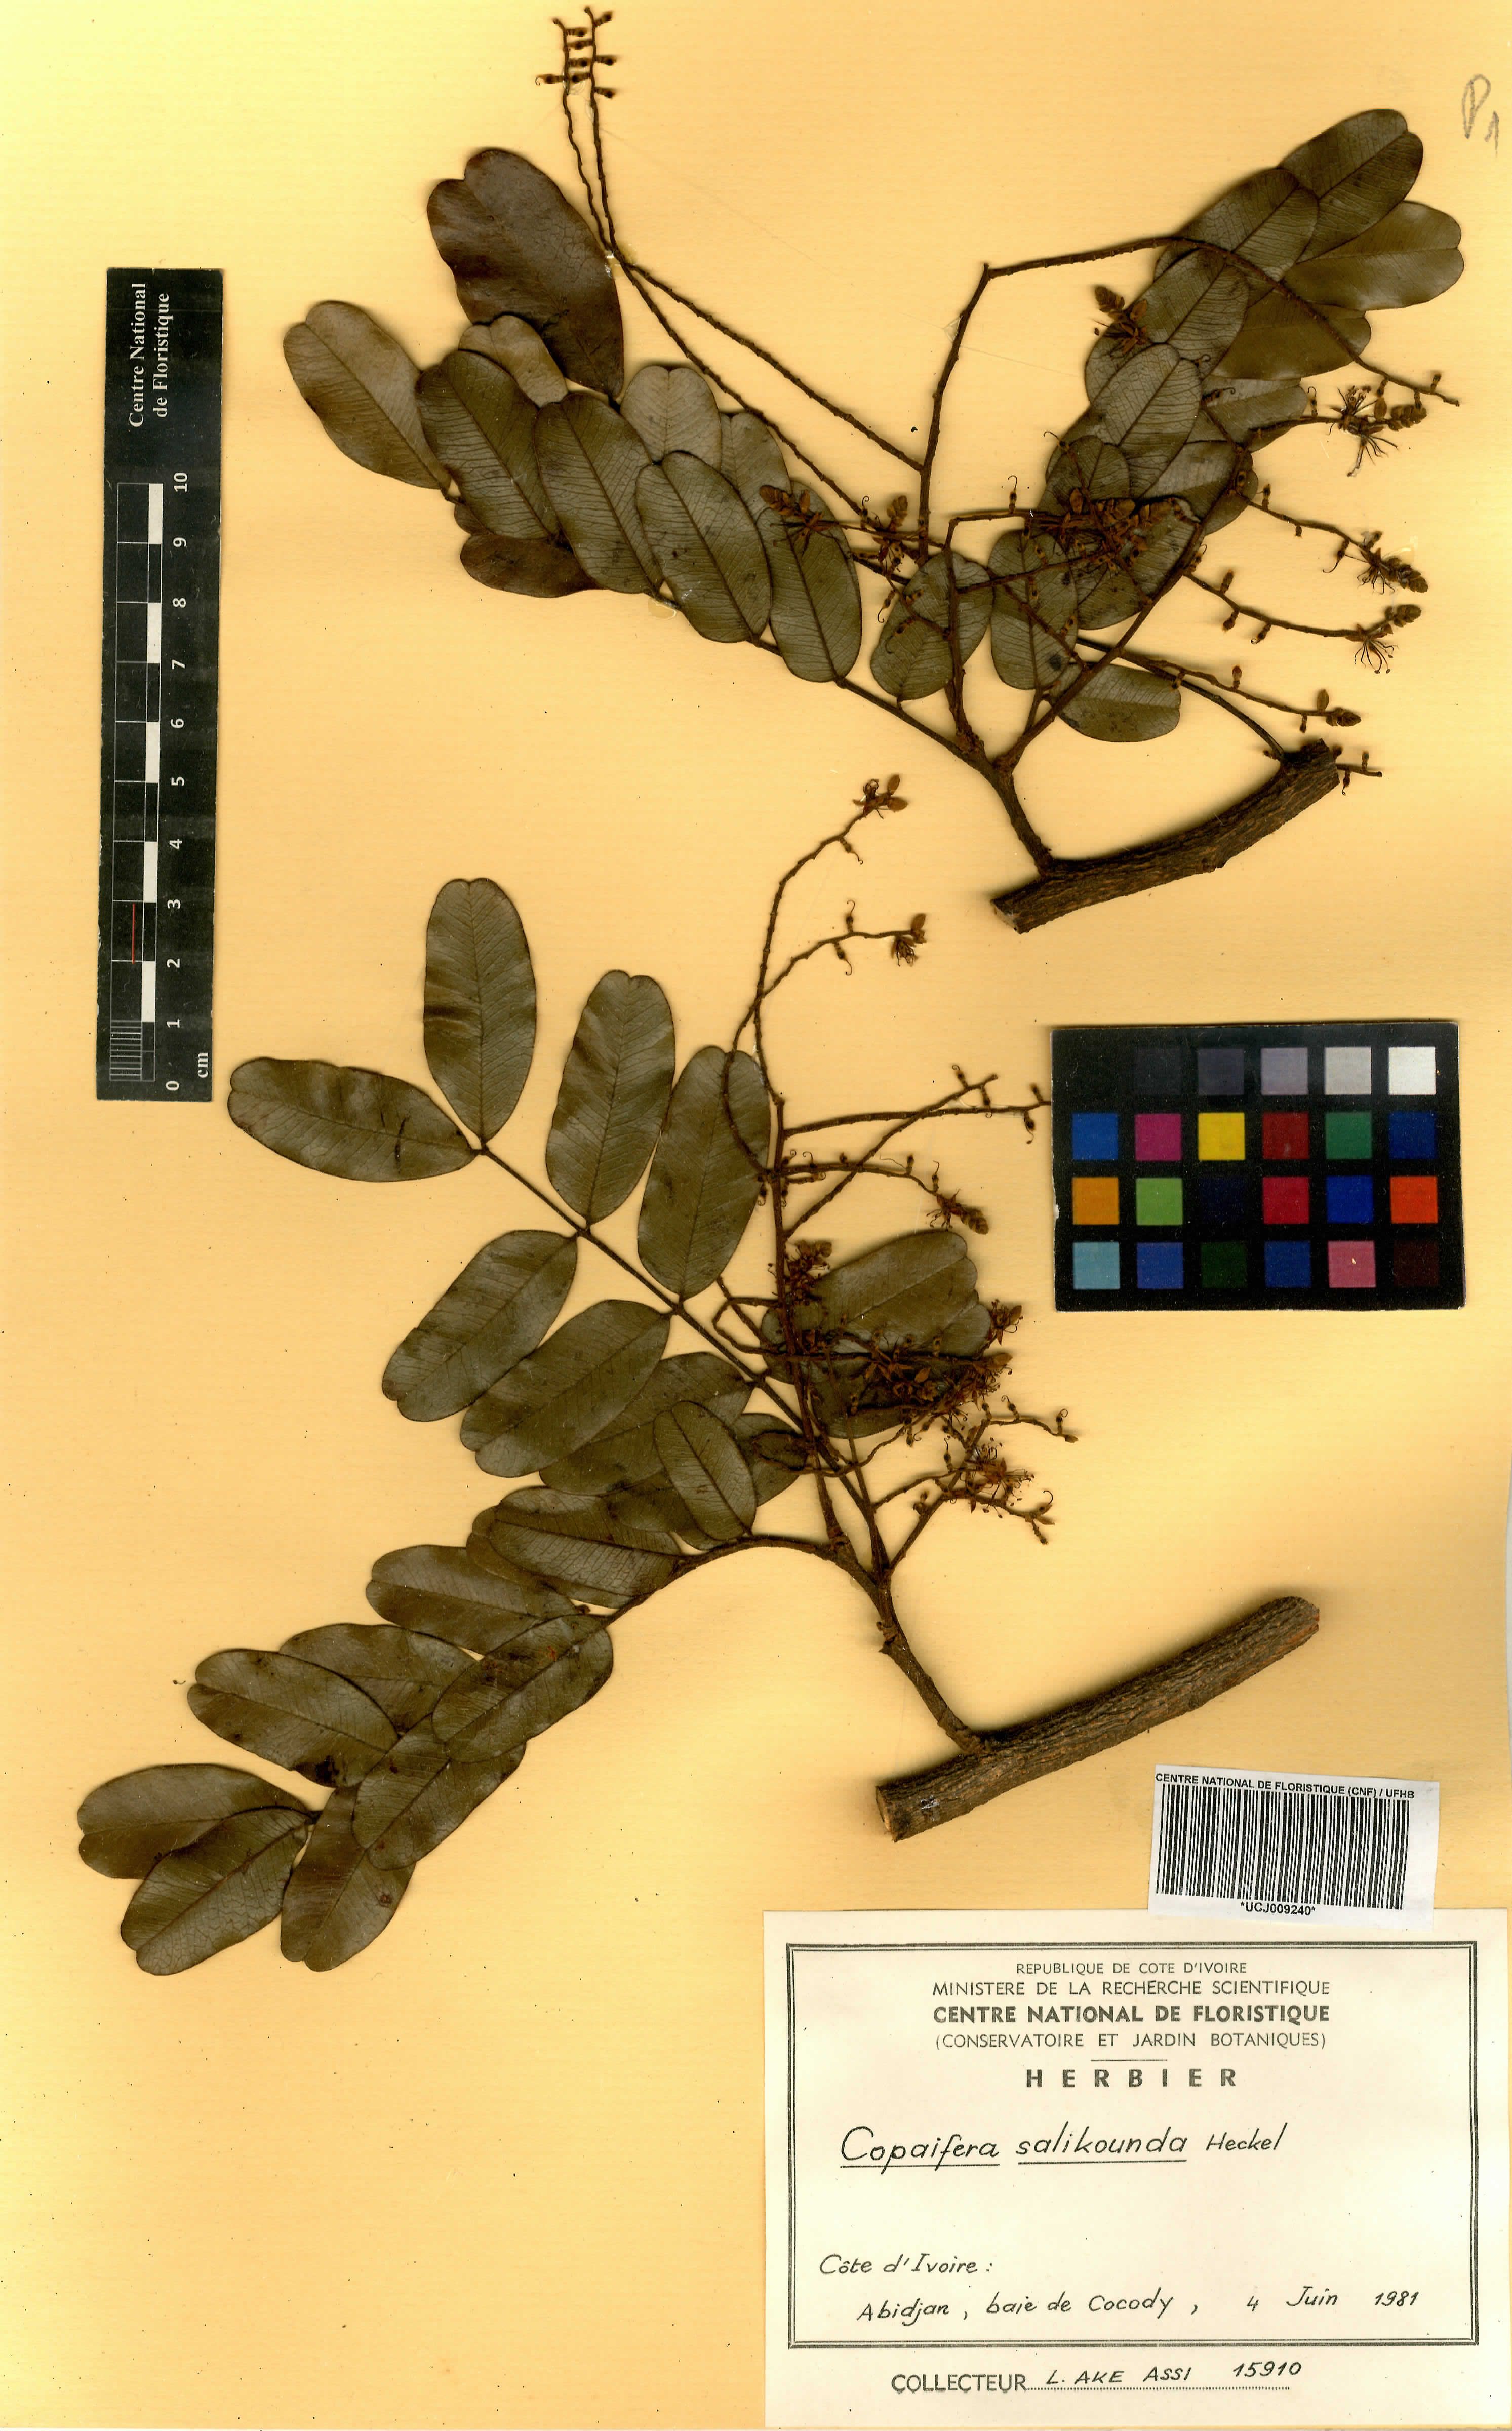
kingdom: Plantae
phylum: Tracheophyta
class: Magnoliopsida
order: Fabales
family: Fabaceae
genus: Copaifera
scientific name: Copaifera salikounda
